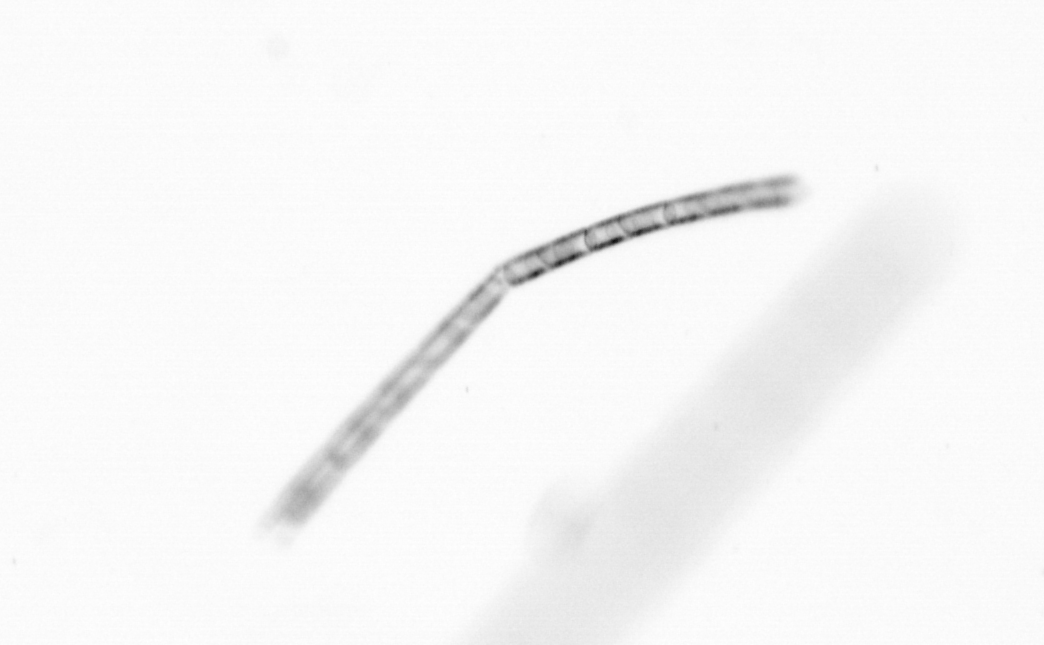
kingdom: Chromista
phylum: Ochrophyta
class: Bacillariophyceae
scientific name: Bacillariophyceae
